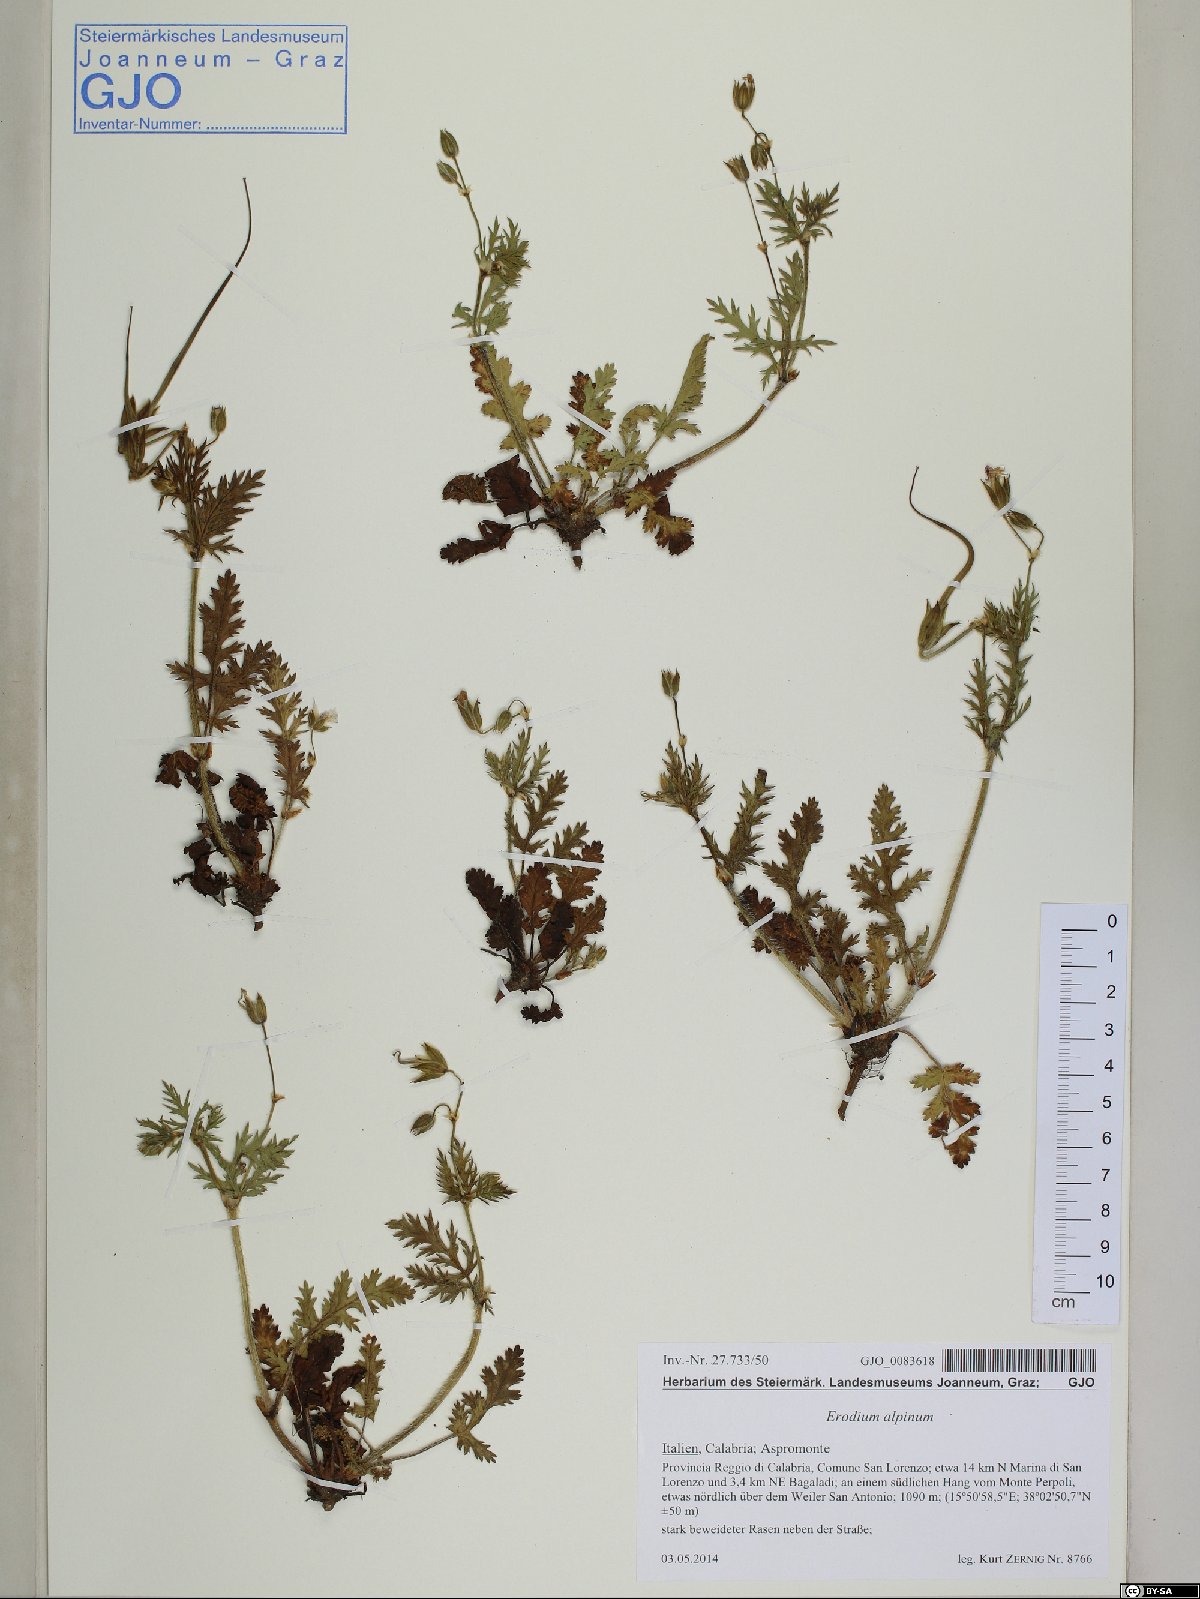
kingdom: Plantae
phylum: Tracheophyta
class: Magnoliopsida
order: Geraniales
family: Geraniaceae
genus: Erodium
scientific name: Erodium alpinum
